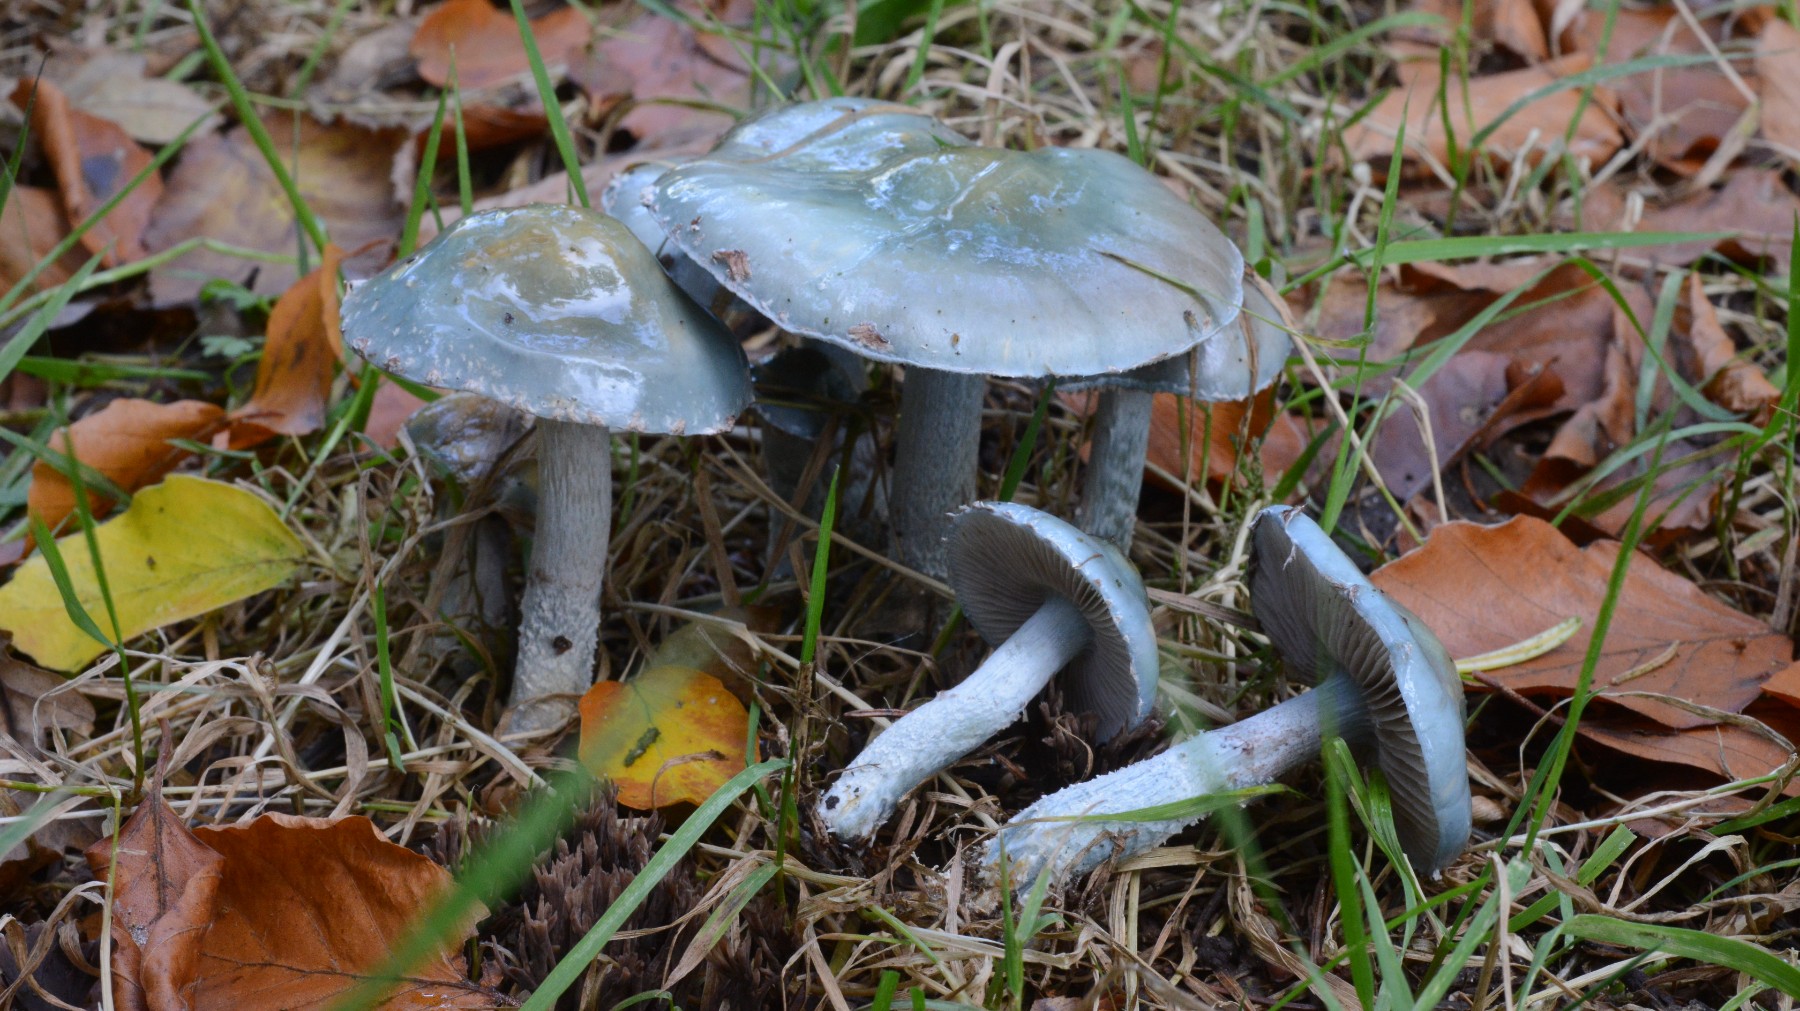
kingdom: Fungi
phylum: Basidiomycota
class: Agaricomycetes
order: Agaricales
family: Strophariaceae
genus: Stropharia
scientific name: Stropharia cyanea
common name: blågrøn bredblad
